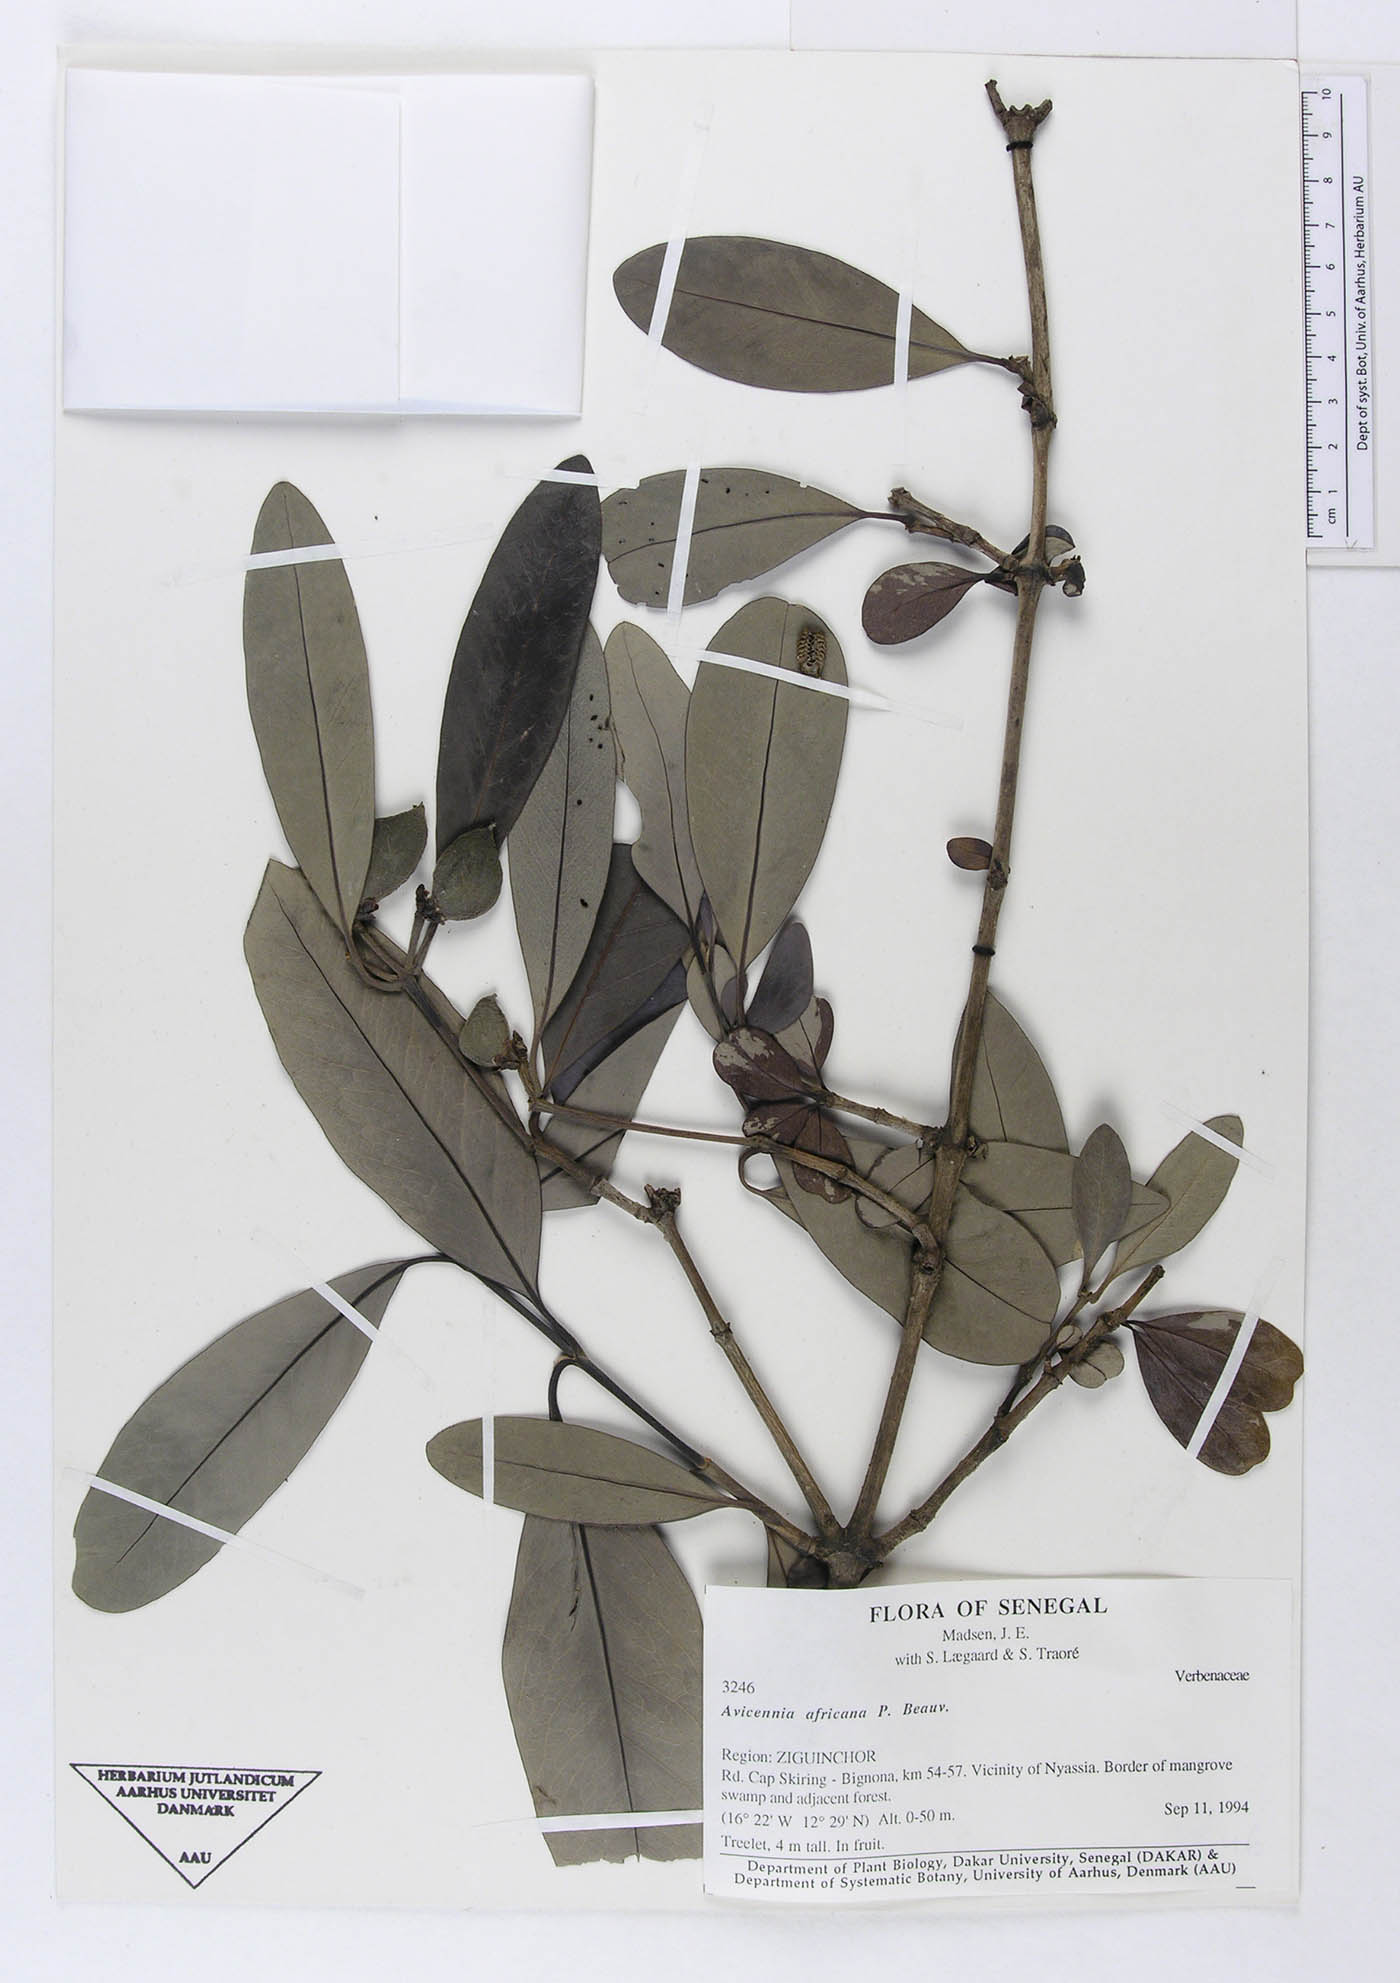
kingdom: Plantae
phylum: Tracheophyta
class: Magnoliopsida
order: Lamiales
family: Acanthaceae
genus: Avicennia
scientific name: Avicennia germinans
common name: Black mangrove
